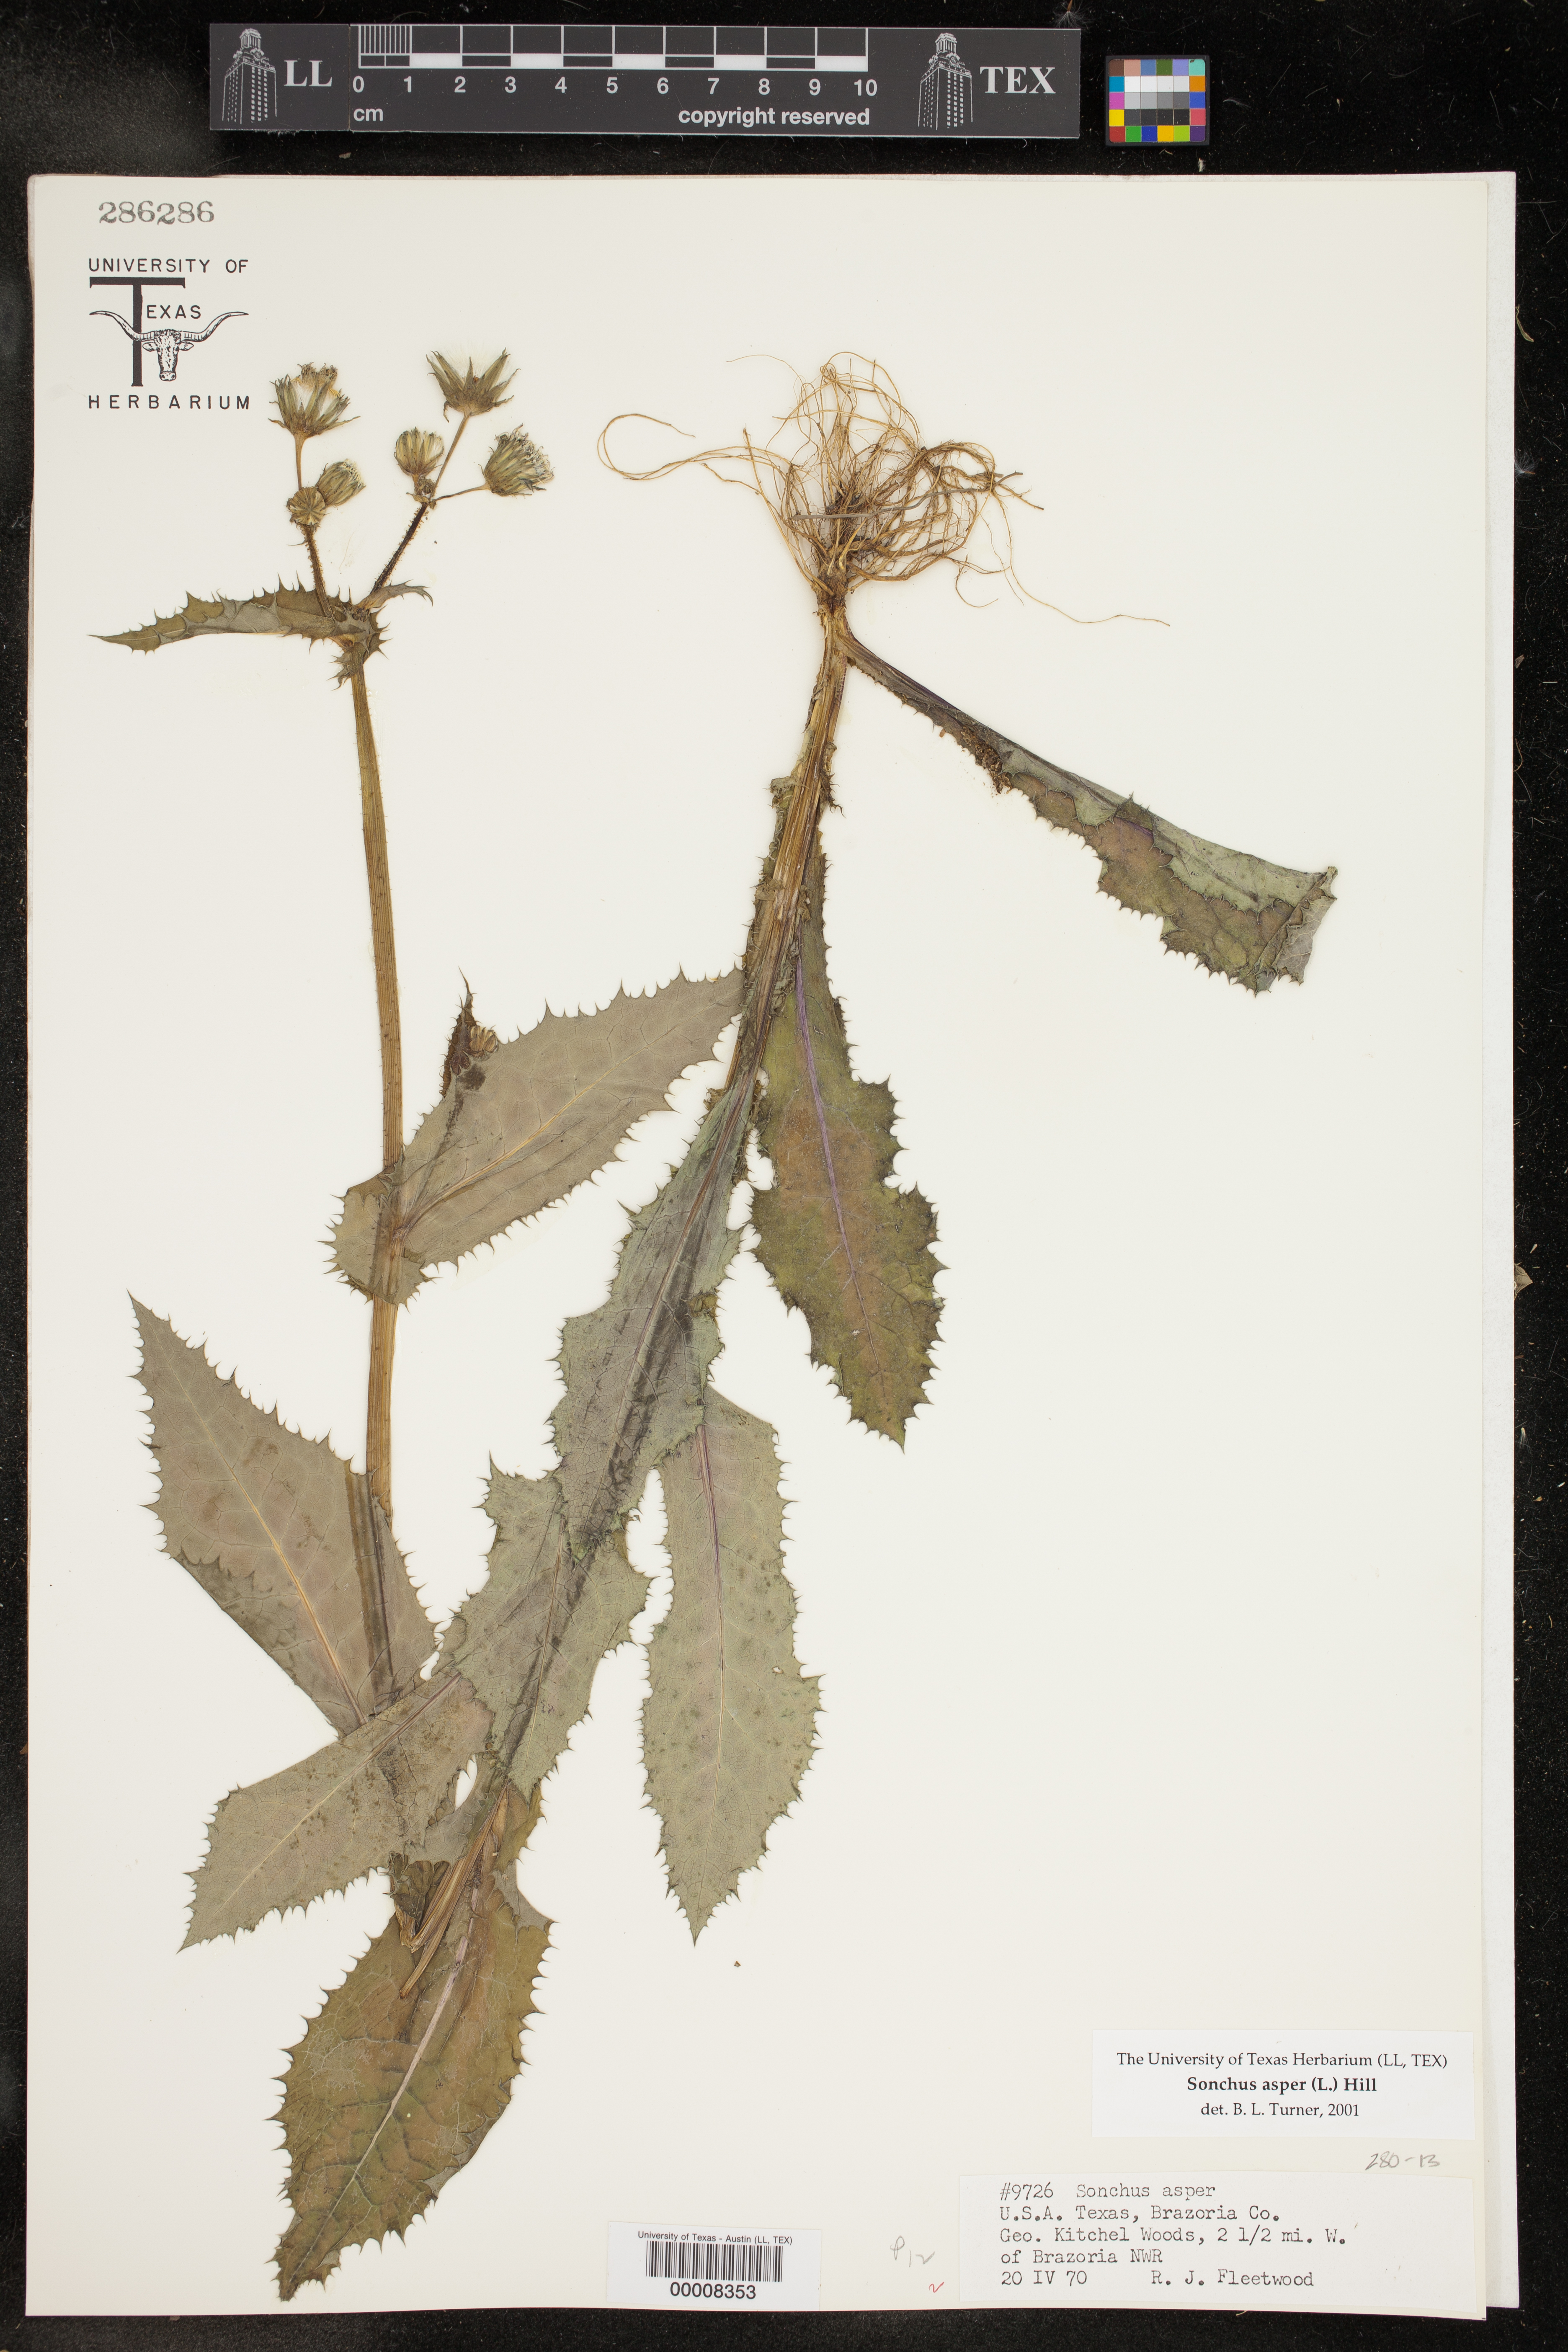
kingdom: Plantae
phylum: Tracheophyta
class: Magnoliopsida
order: Asterales
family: Asteraceae
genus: Sonchus
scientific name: Sonchus asper
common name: Prickly sow-thistle
